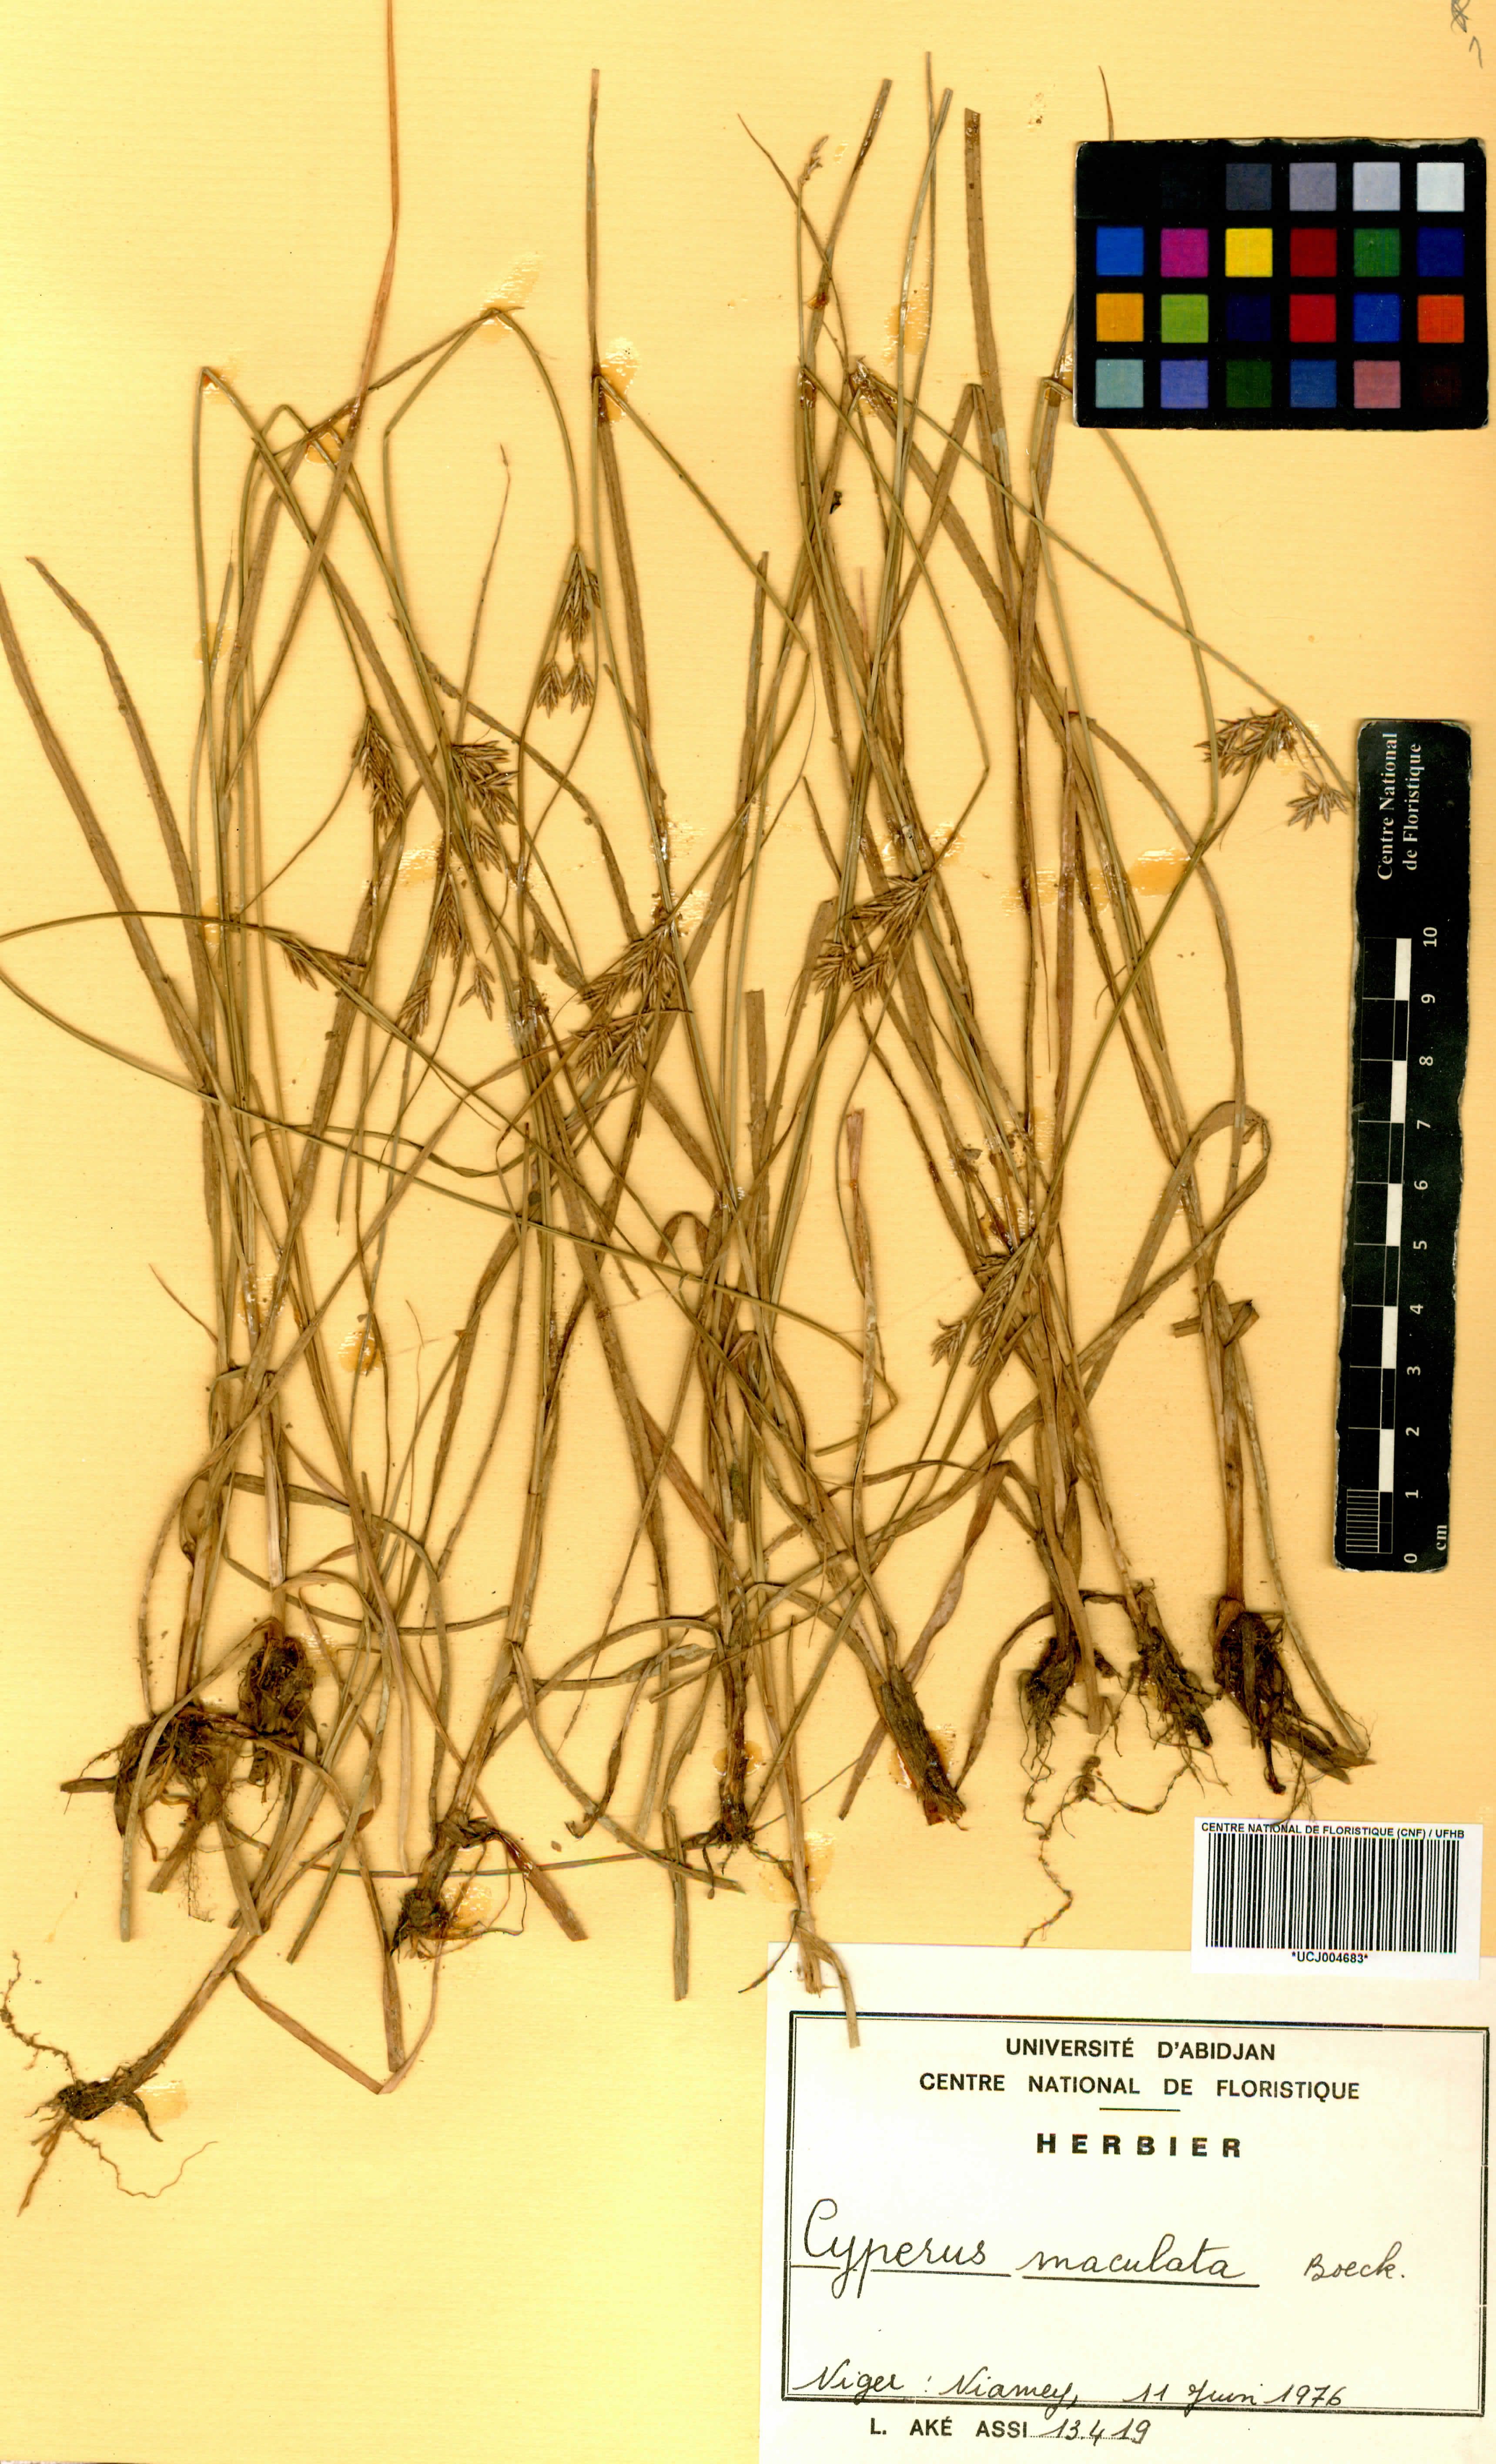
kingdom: Plantae
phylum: Tracheophyta
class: Liliopsida
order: Poales
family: Cyperaceae
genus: Cyperus
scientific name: Cyperus maculatus
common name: Maculated sedge
